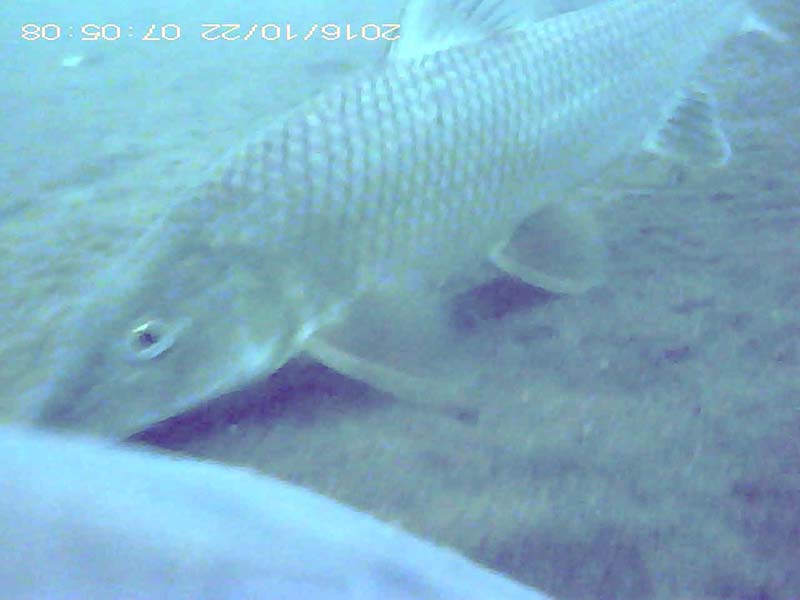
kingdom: Animalia
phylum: Chordata
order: Cypriniformes
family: Cyprinidae
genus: Hemibarbus
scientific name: Hemibarbus labeo
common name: ニゴイ
